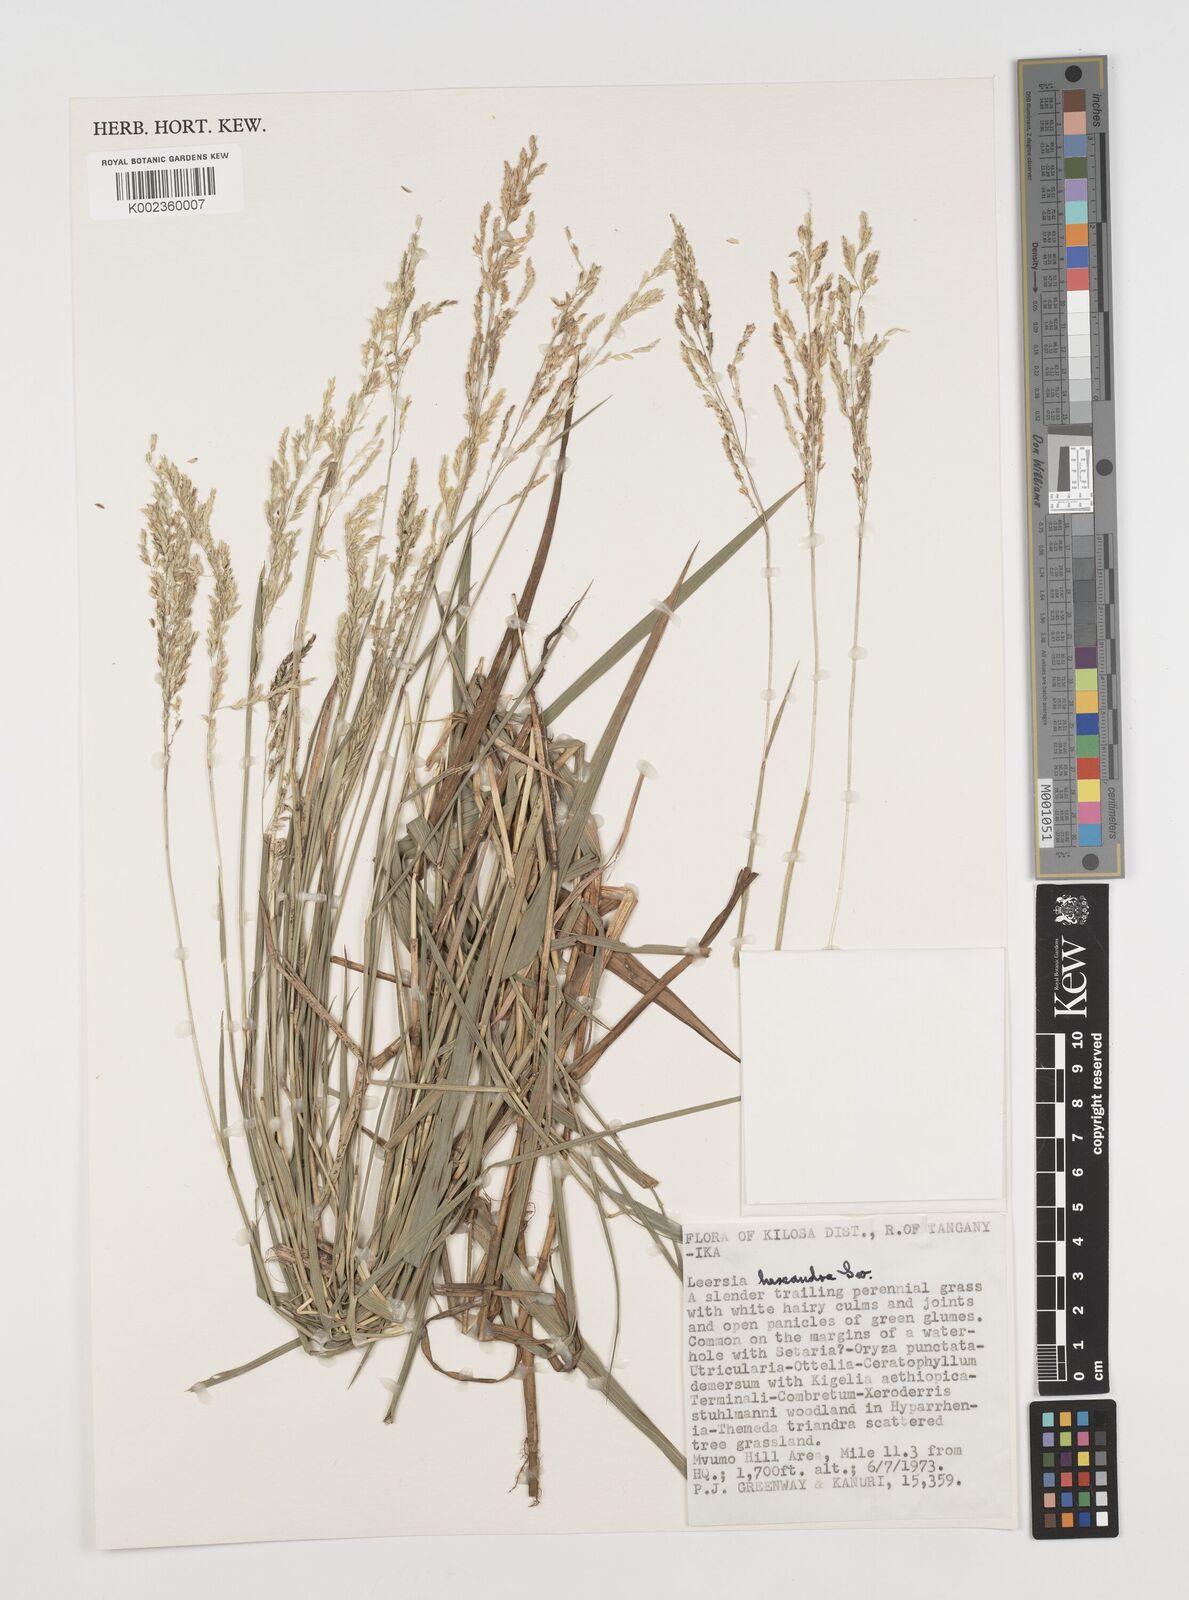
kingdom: Plantae
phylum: Tracheophyta
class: Liliopsida
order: Poales
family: Poaceae
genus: Leersia
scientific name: Leersia hexandra
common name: Southern cut grass
